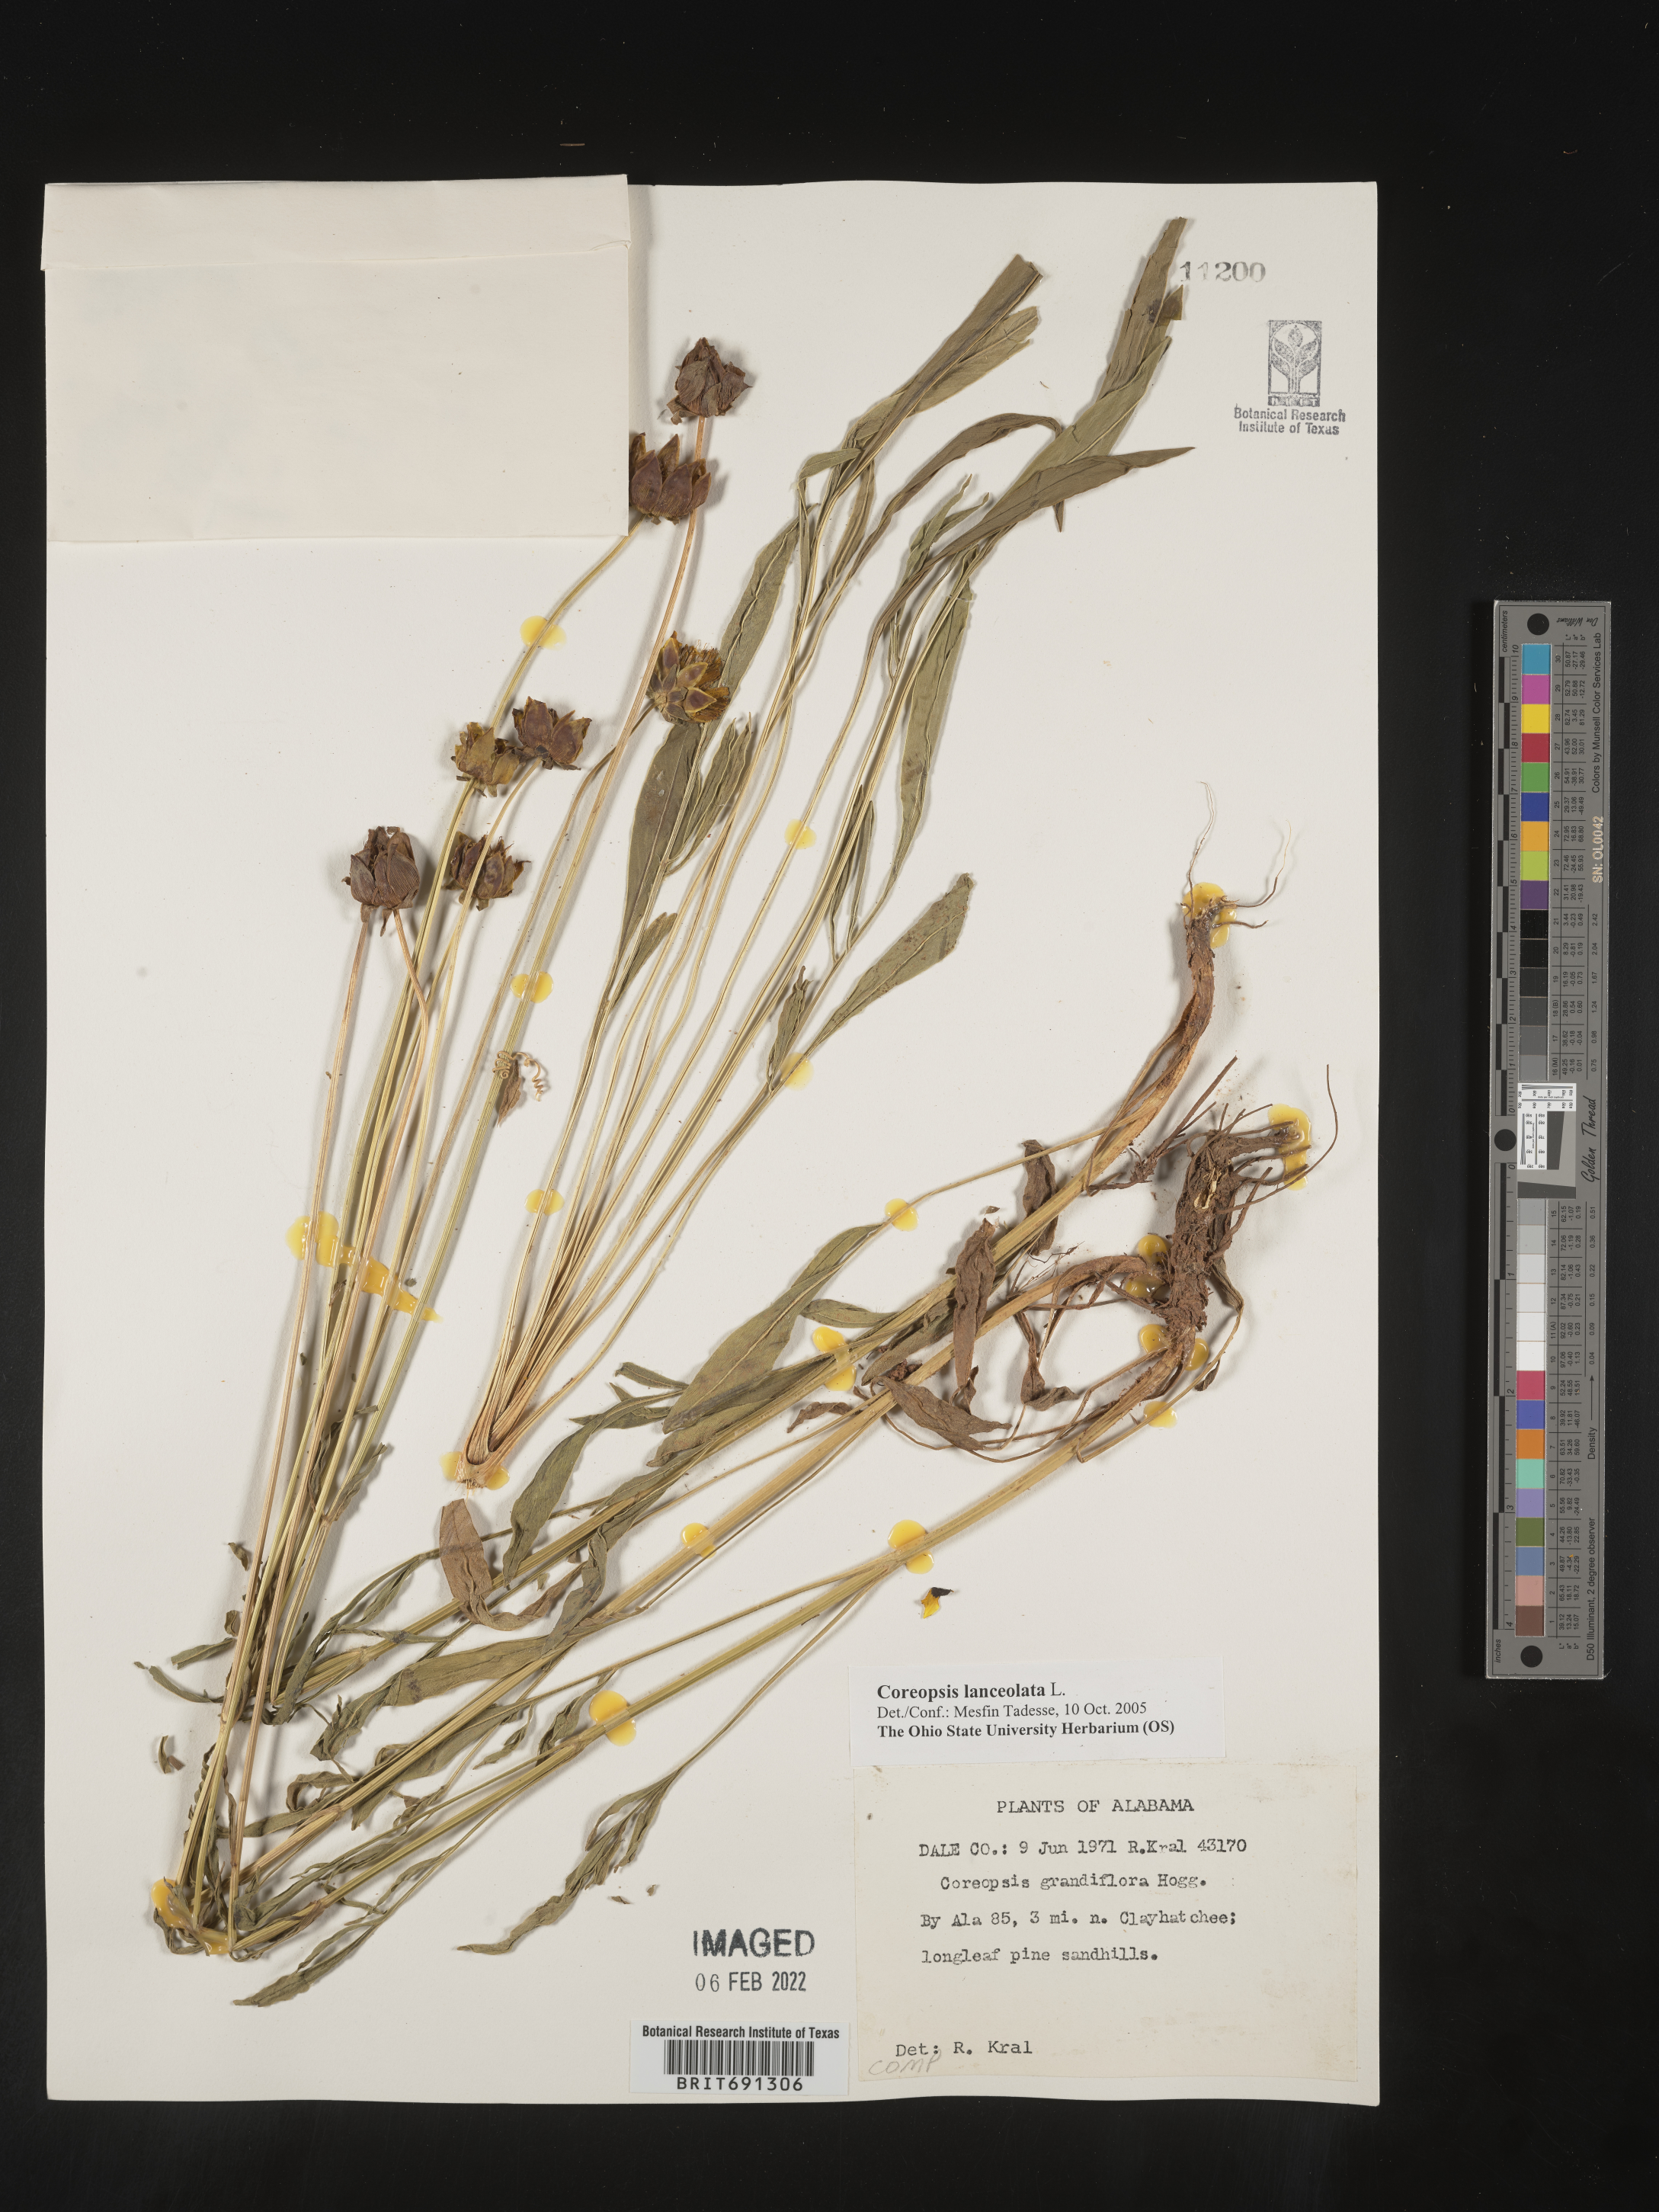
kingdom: Plantae
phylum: Tracheophyta
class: Magnoliopsida
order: Asterales
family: Asteraceae
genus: Coreopsis
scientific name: Coreopsis lanceolata
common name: Garden coreopsis
